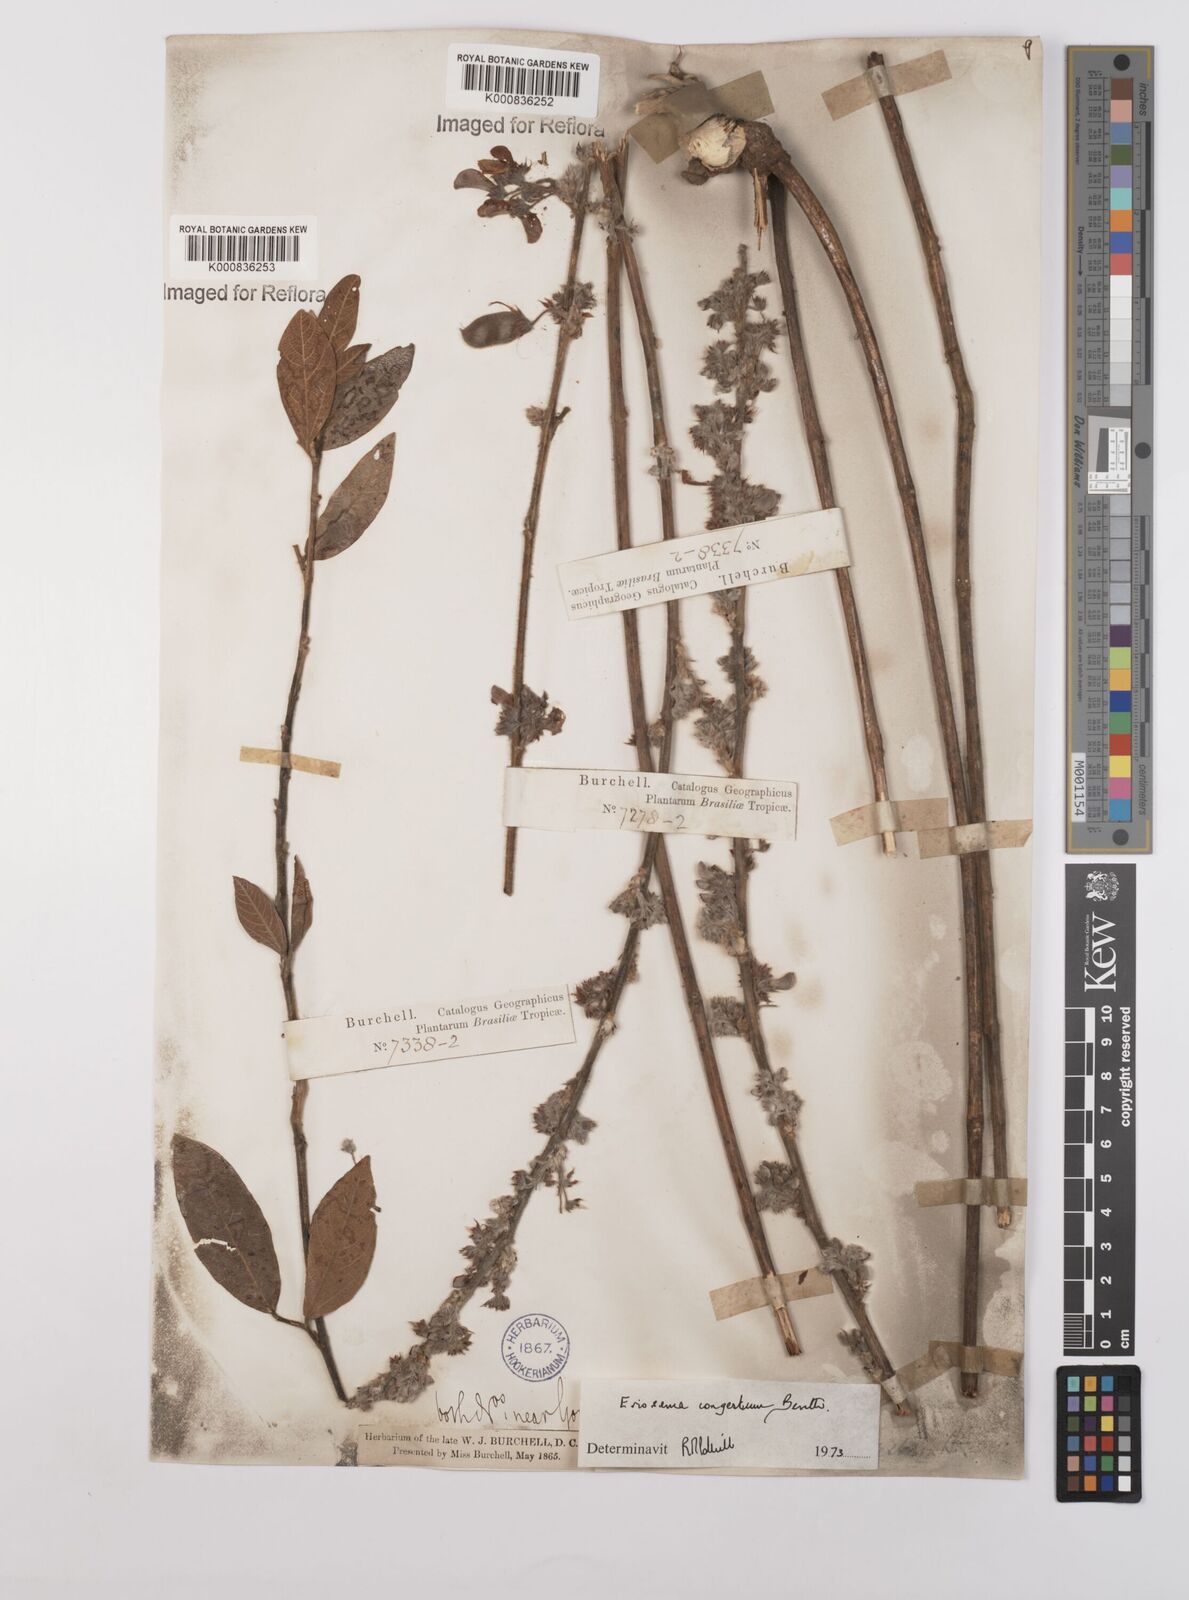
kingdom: Plantae
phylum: Tracheophyta
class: Magnoliopsida
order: Fabales
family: Fabaceae
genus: Eriosema
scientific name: Eriosema congestum
